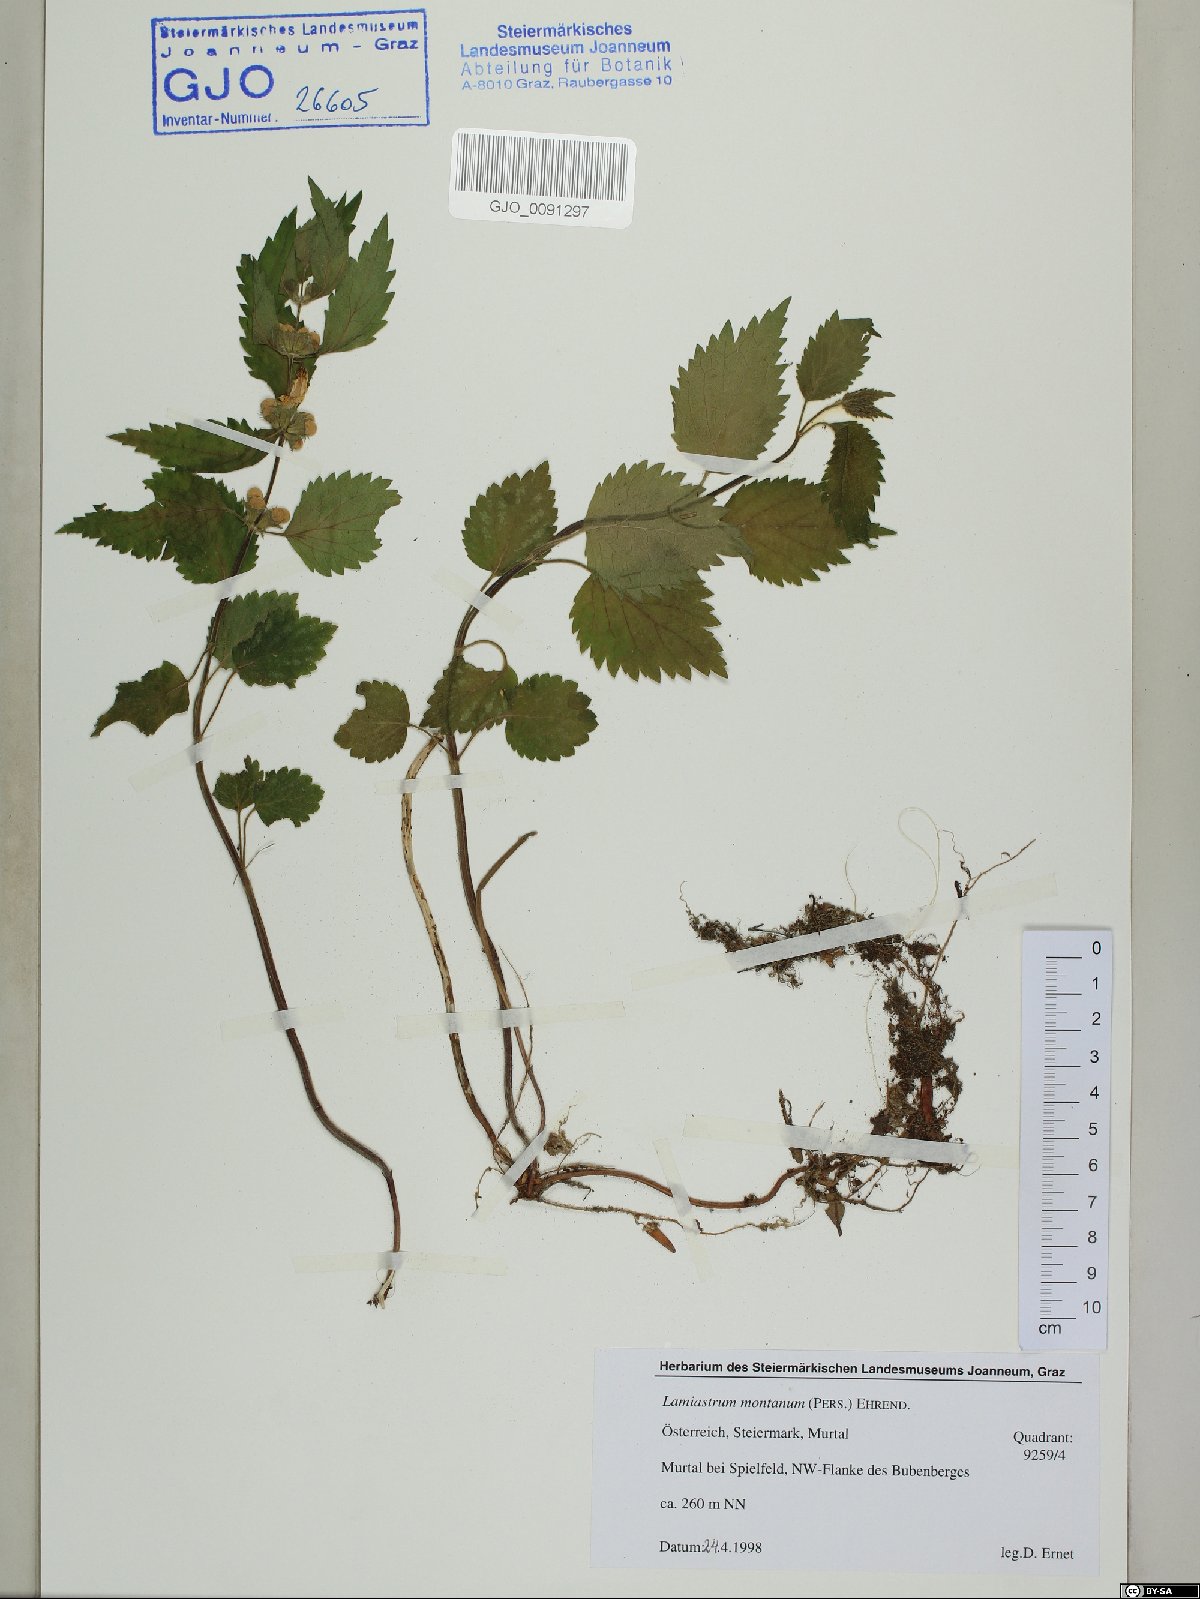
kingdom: Plantae
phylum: Tracheophyta
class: Magnoliopsida
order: Lamiales
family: Lamiaceae
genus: Lamium
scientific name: Lamium galeobdolon
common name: Yellow archangel
